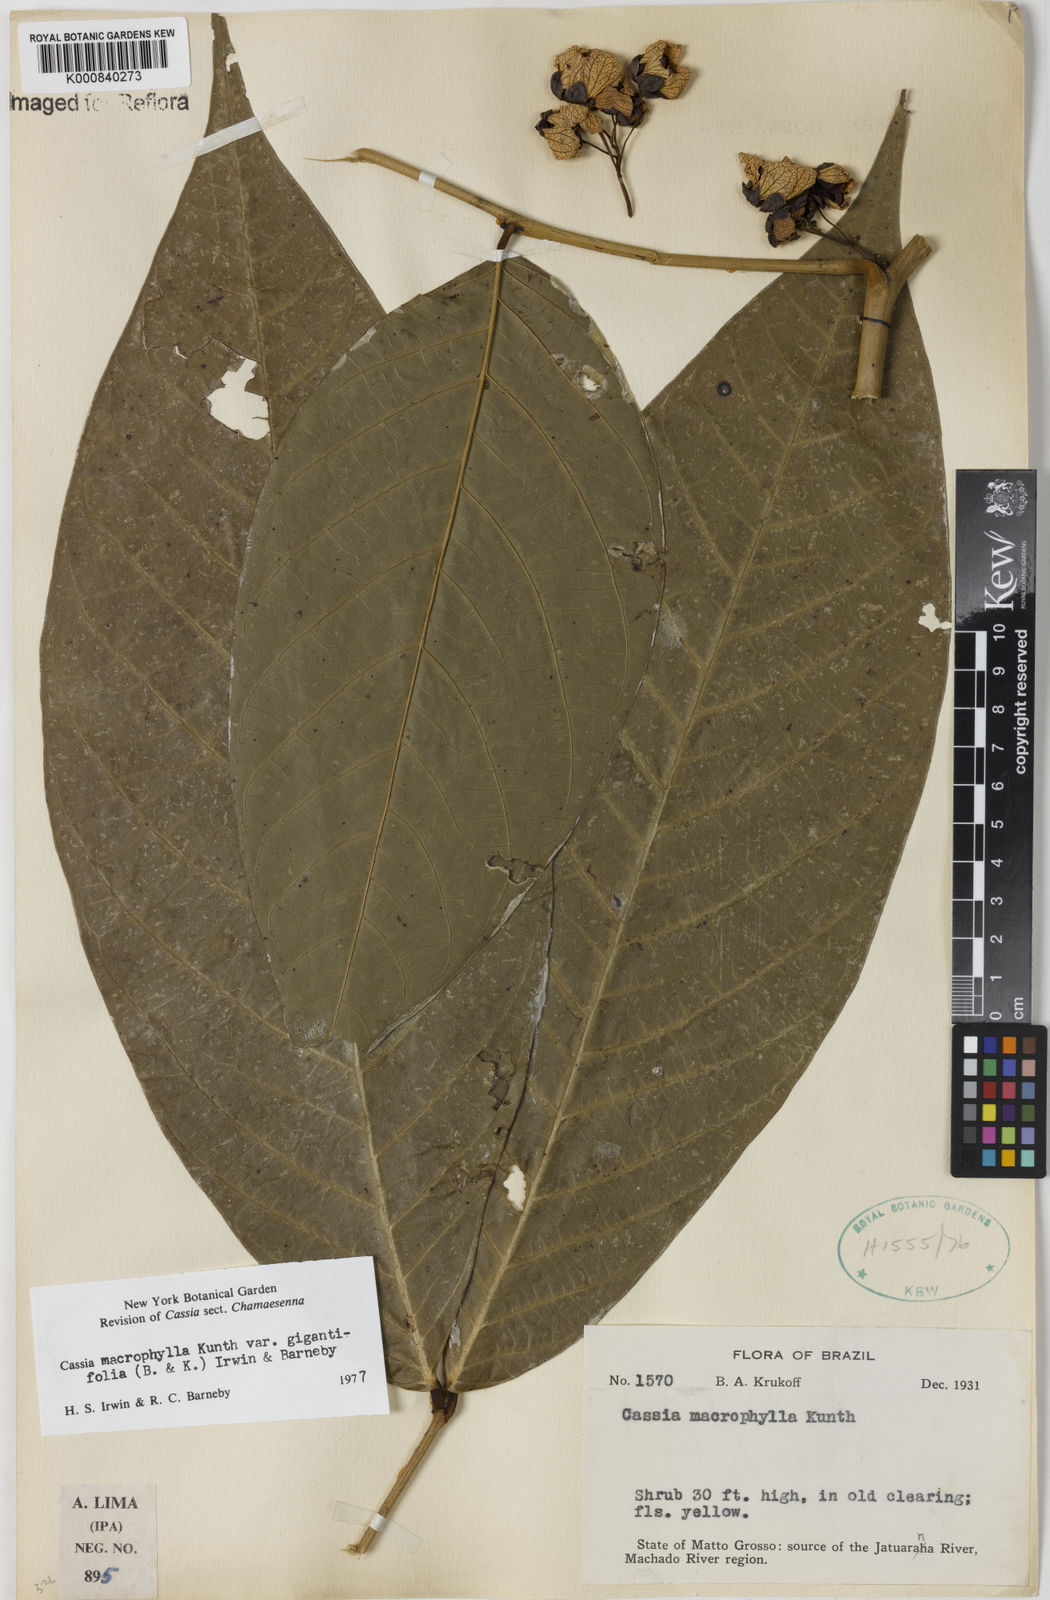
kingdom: Plantae
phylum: Tracheophyta
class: Magnoliopsida
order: Fabales
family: Fabaceae
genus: Senna
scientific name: Senna macrophylla
